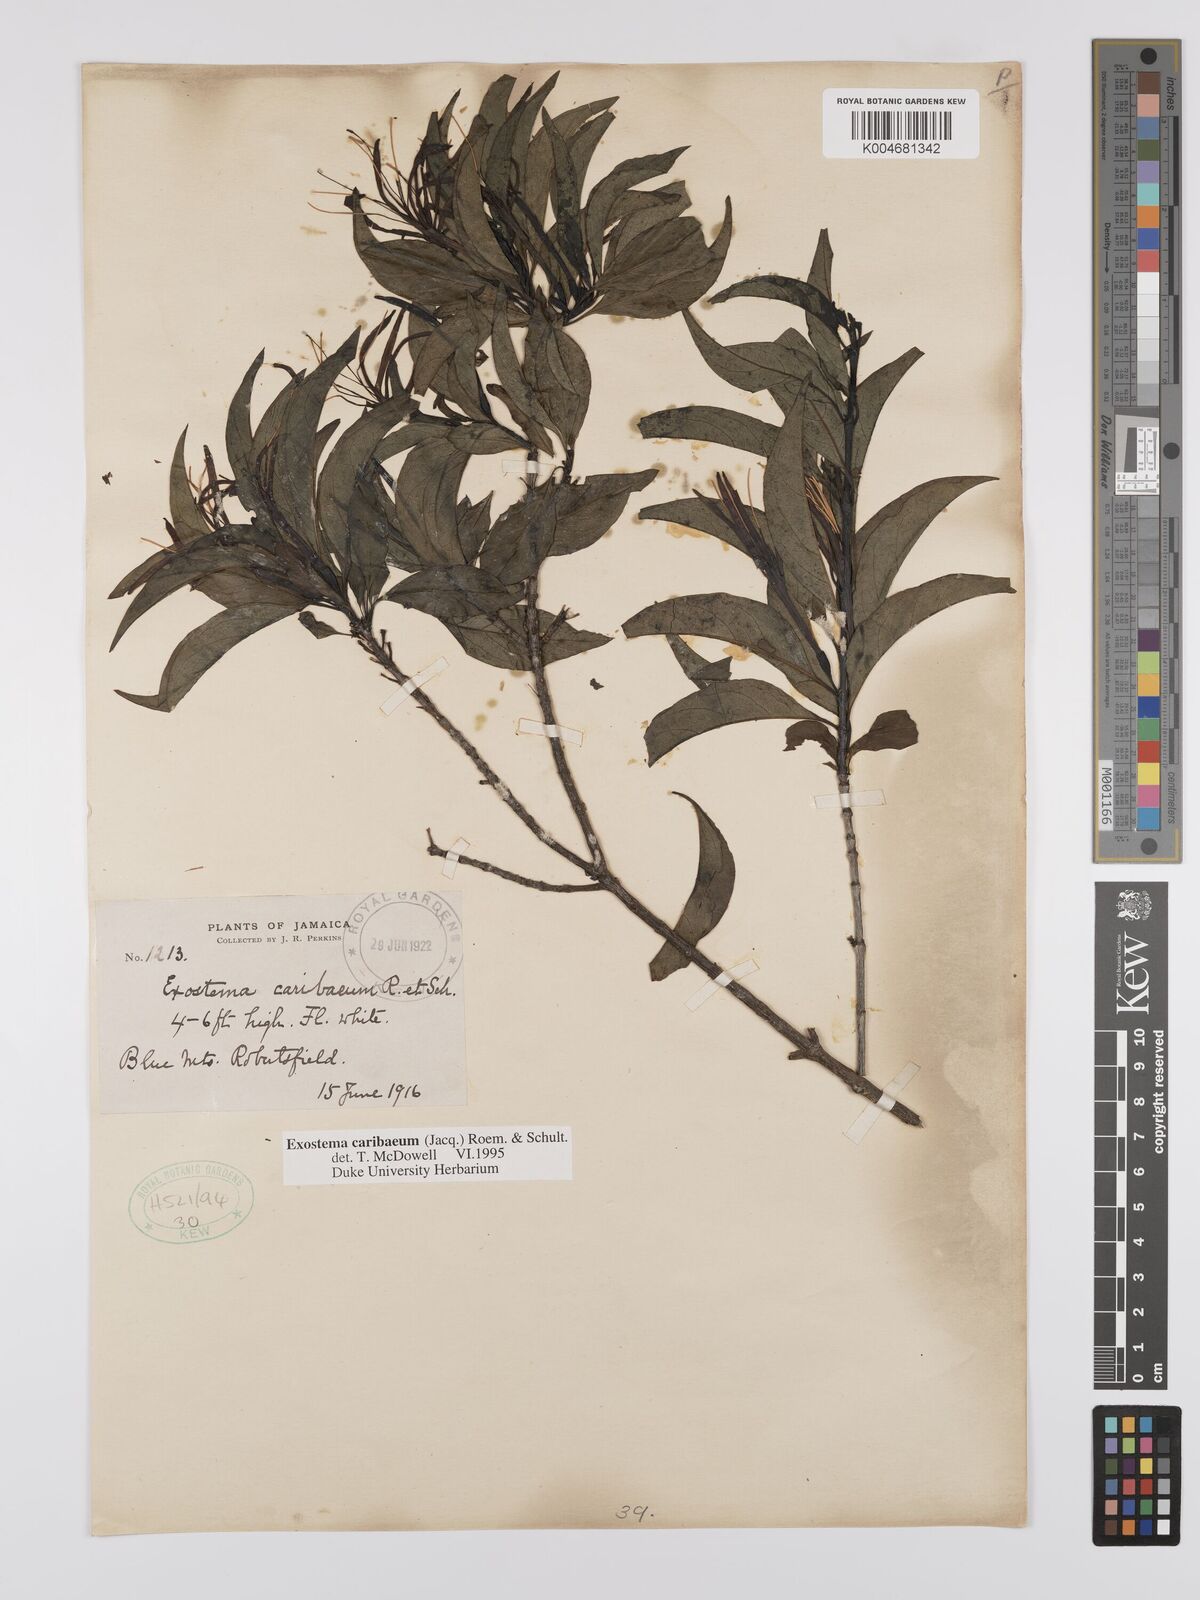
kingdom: Plantae
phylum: Tracheophyta
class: Magnoliopsida
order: Gentianales
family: Rubiaceae
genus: Exostema
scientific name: Exostema caribaeum
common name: Princewood
